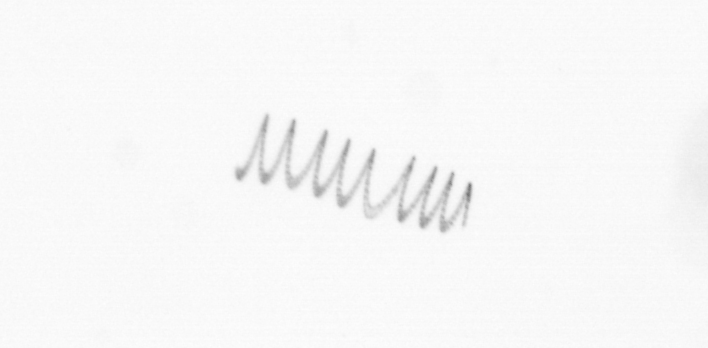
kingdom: Chromista
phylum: Ochrophyta
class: Bacillariophyceae
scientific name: Bacillariophyceae
